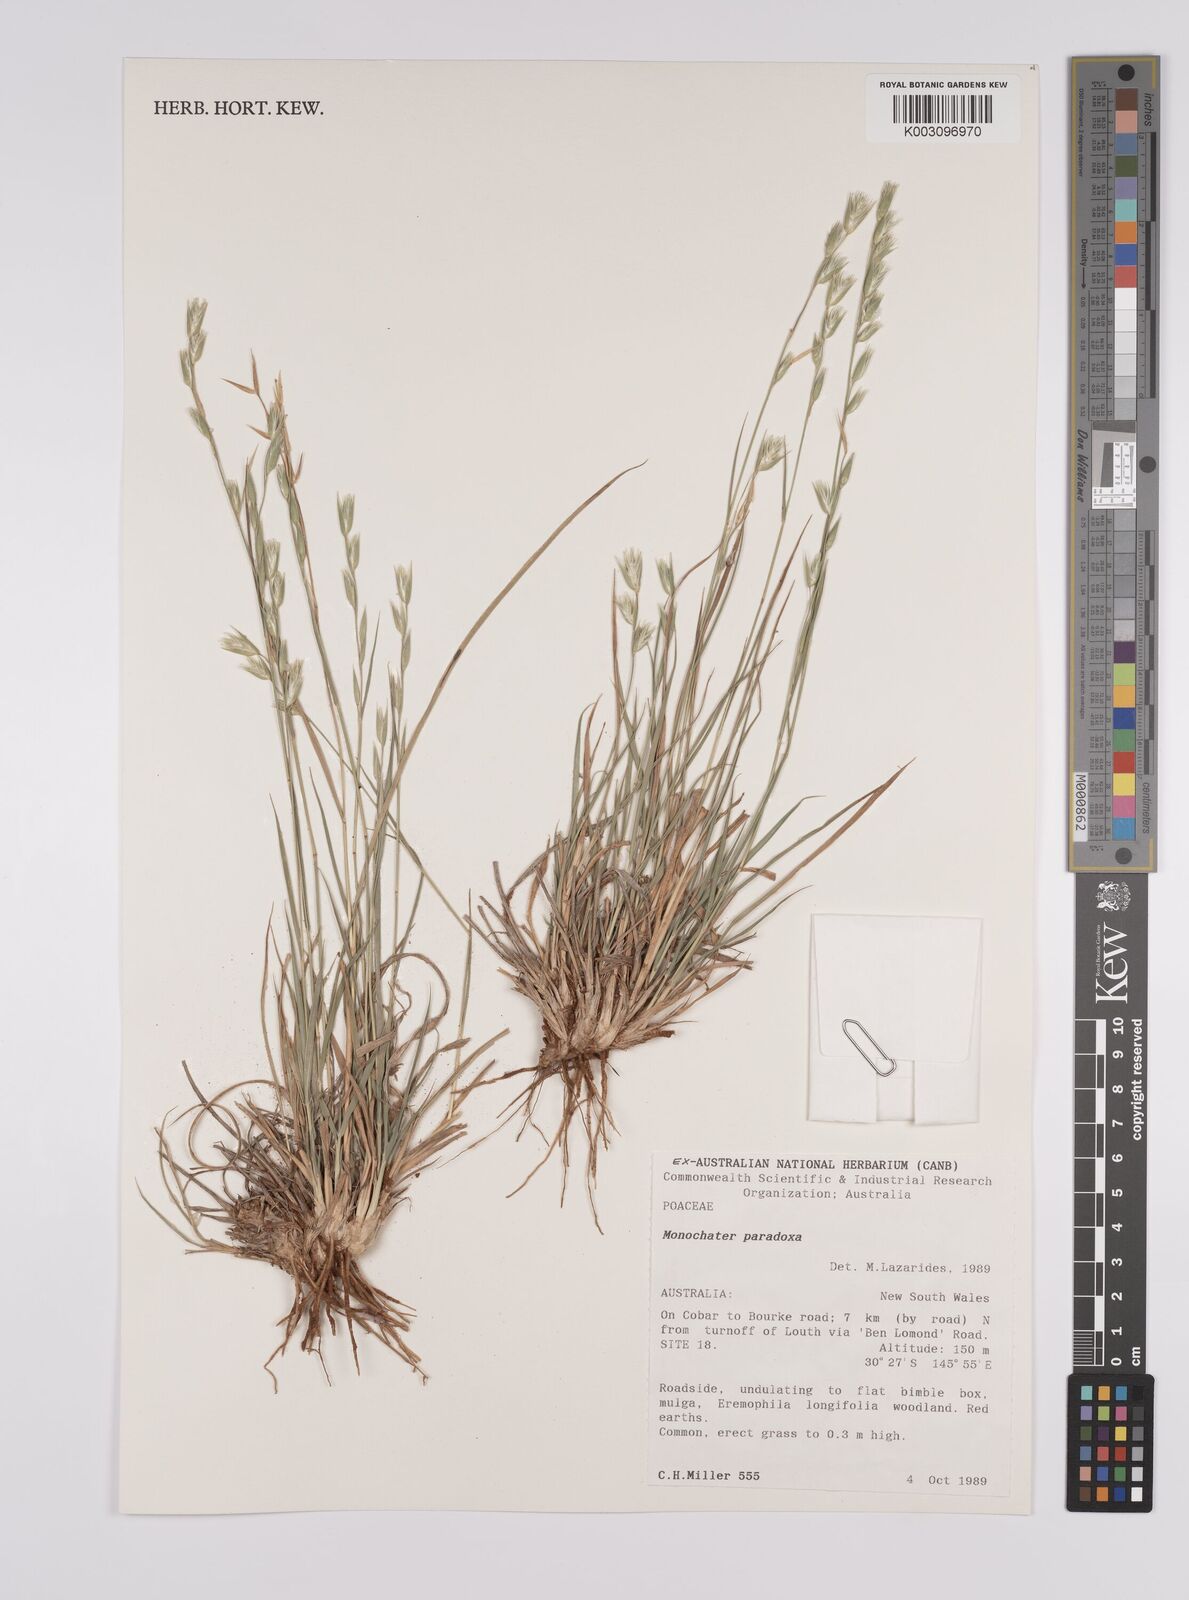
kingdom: Plantae
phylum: Tracheophyta
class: Liliopsida
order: Poales
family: Poaceae
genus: Monachather
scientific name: Monachather paradoxus
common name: Bandicoot grass
